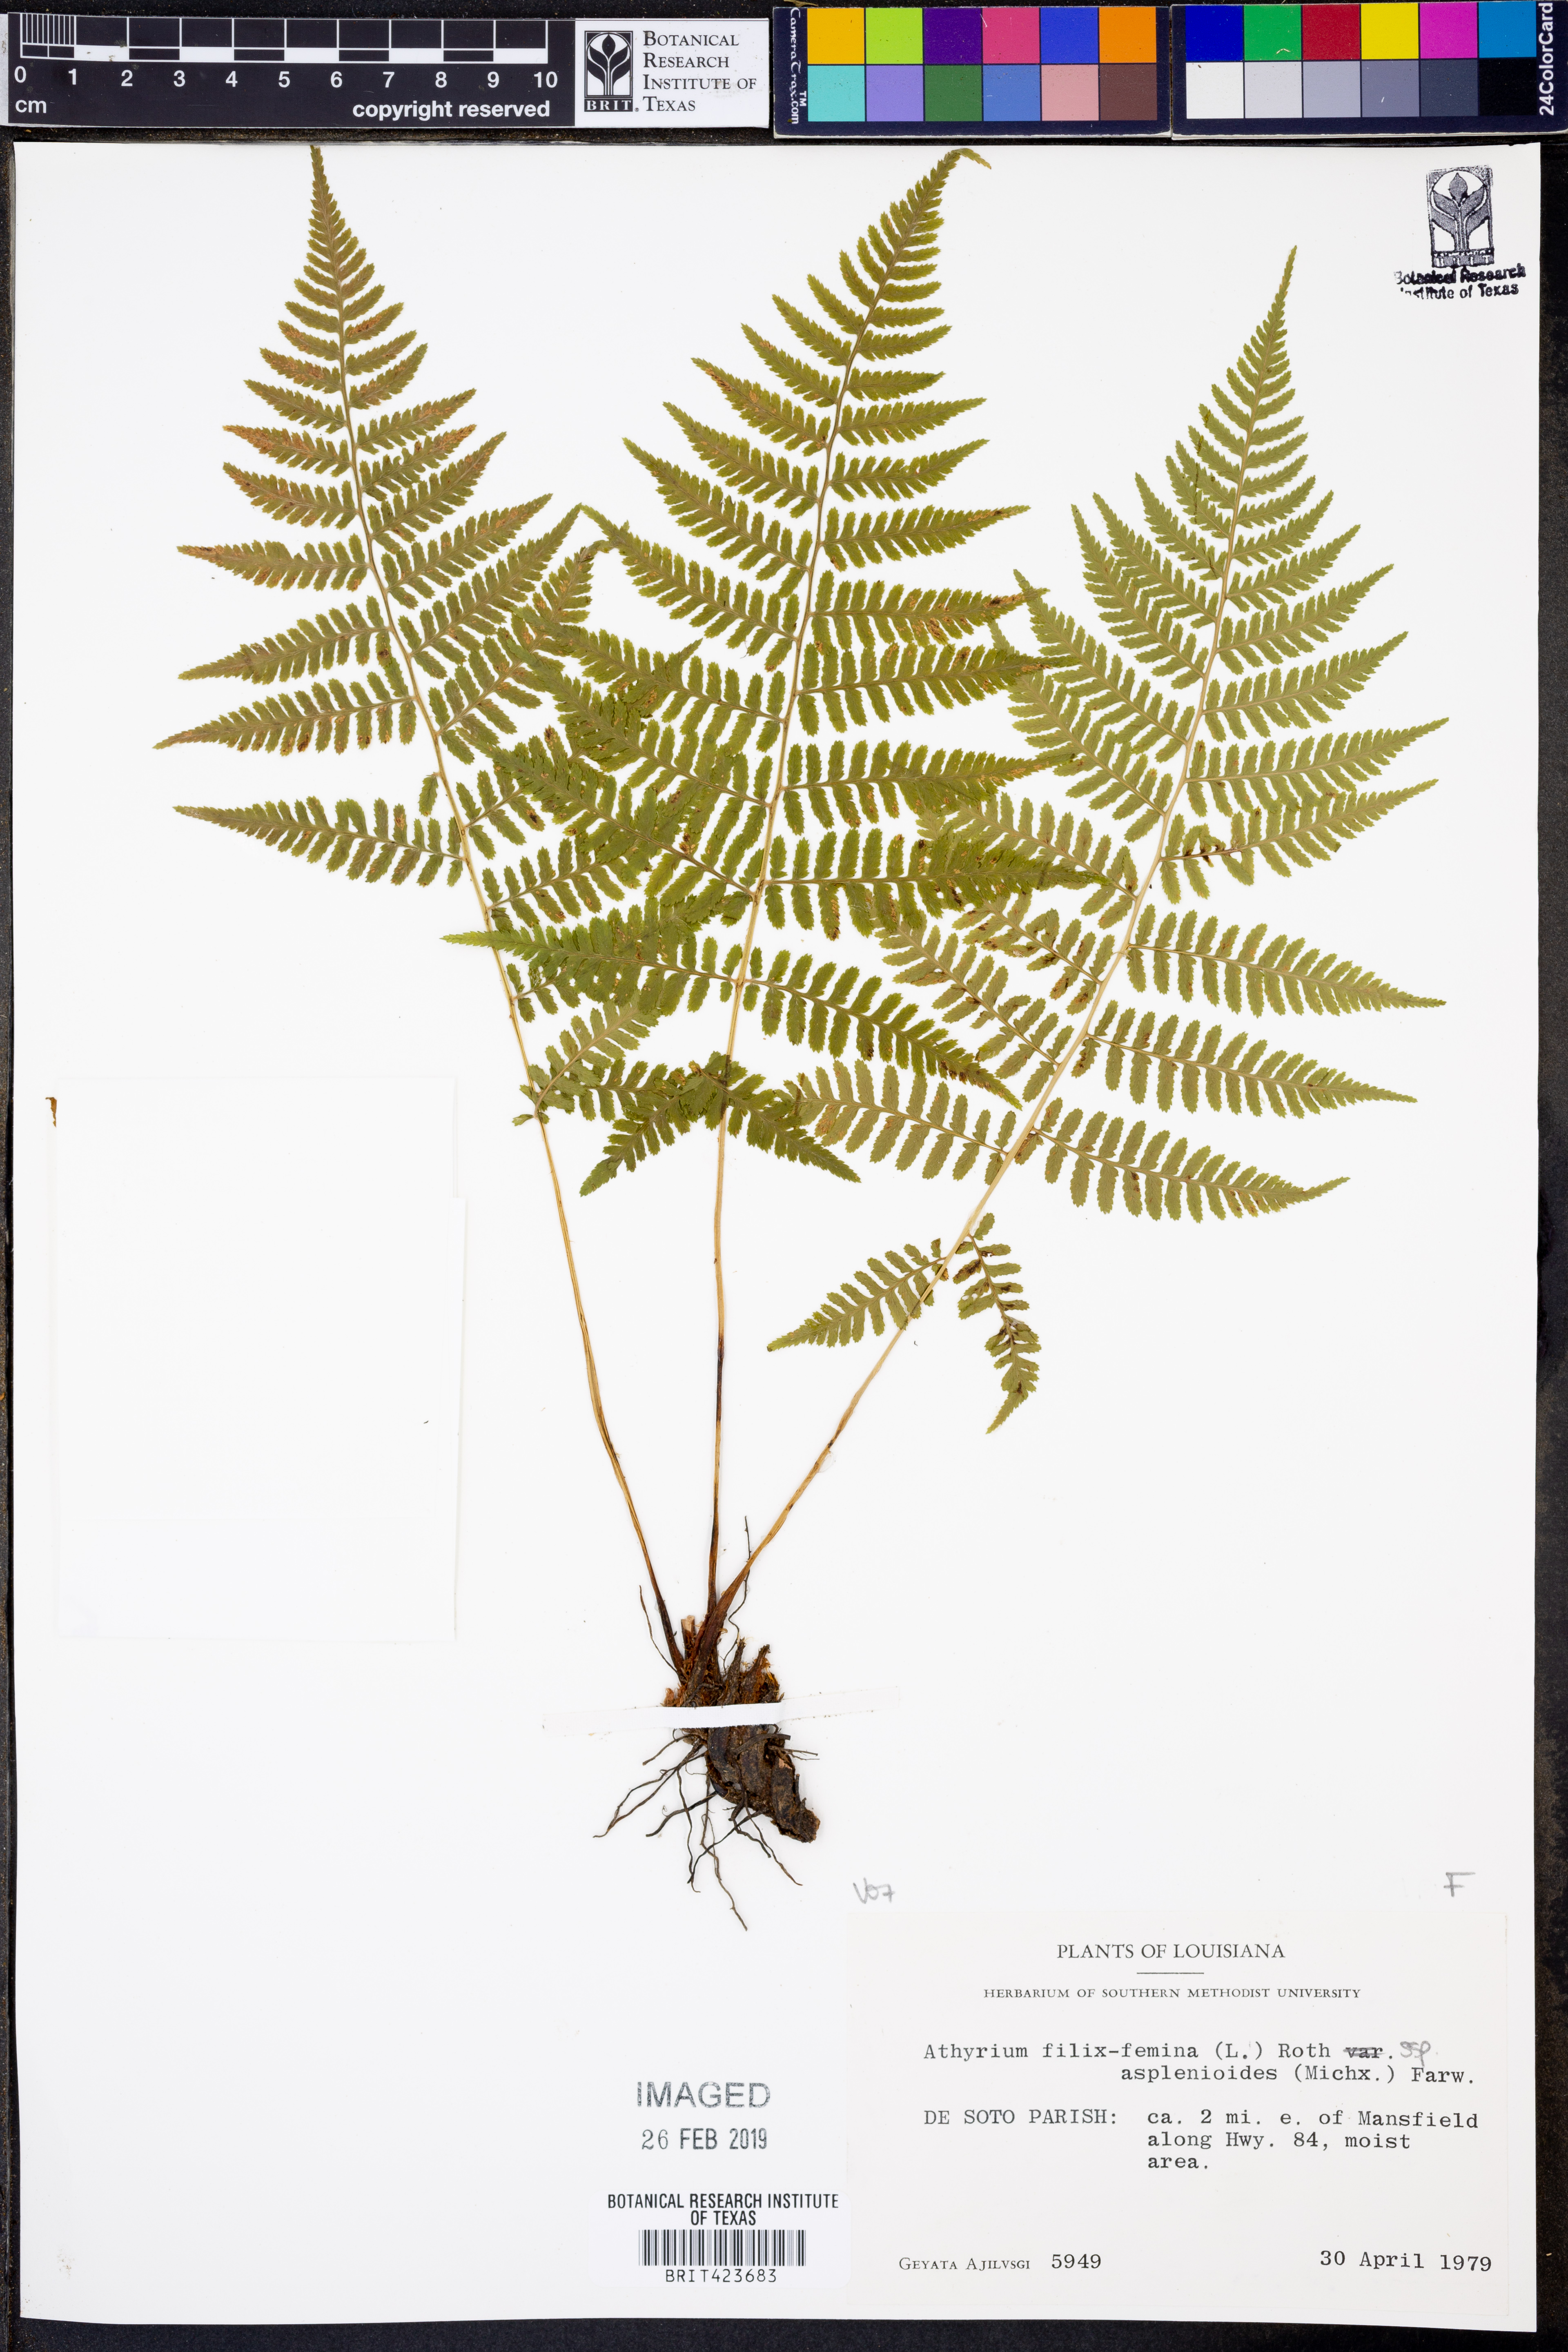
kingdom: Plantae
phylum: Tracheophyta
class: Polypodiopsida
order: Polypodiales
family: Athyriaceae
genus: Athyrium
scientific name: Athyrium asplenioides
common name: Southern lady fern
